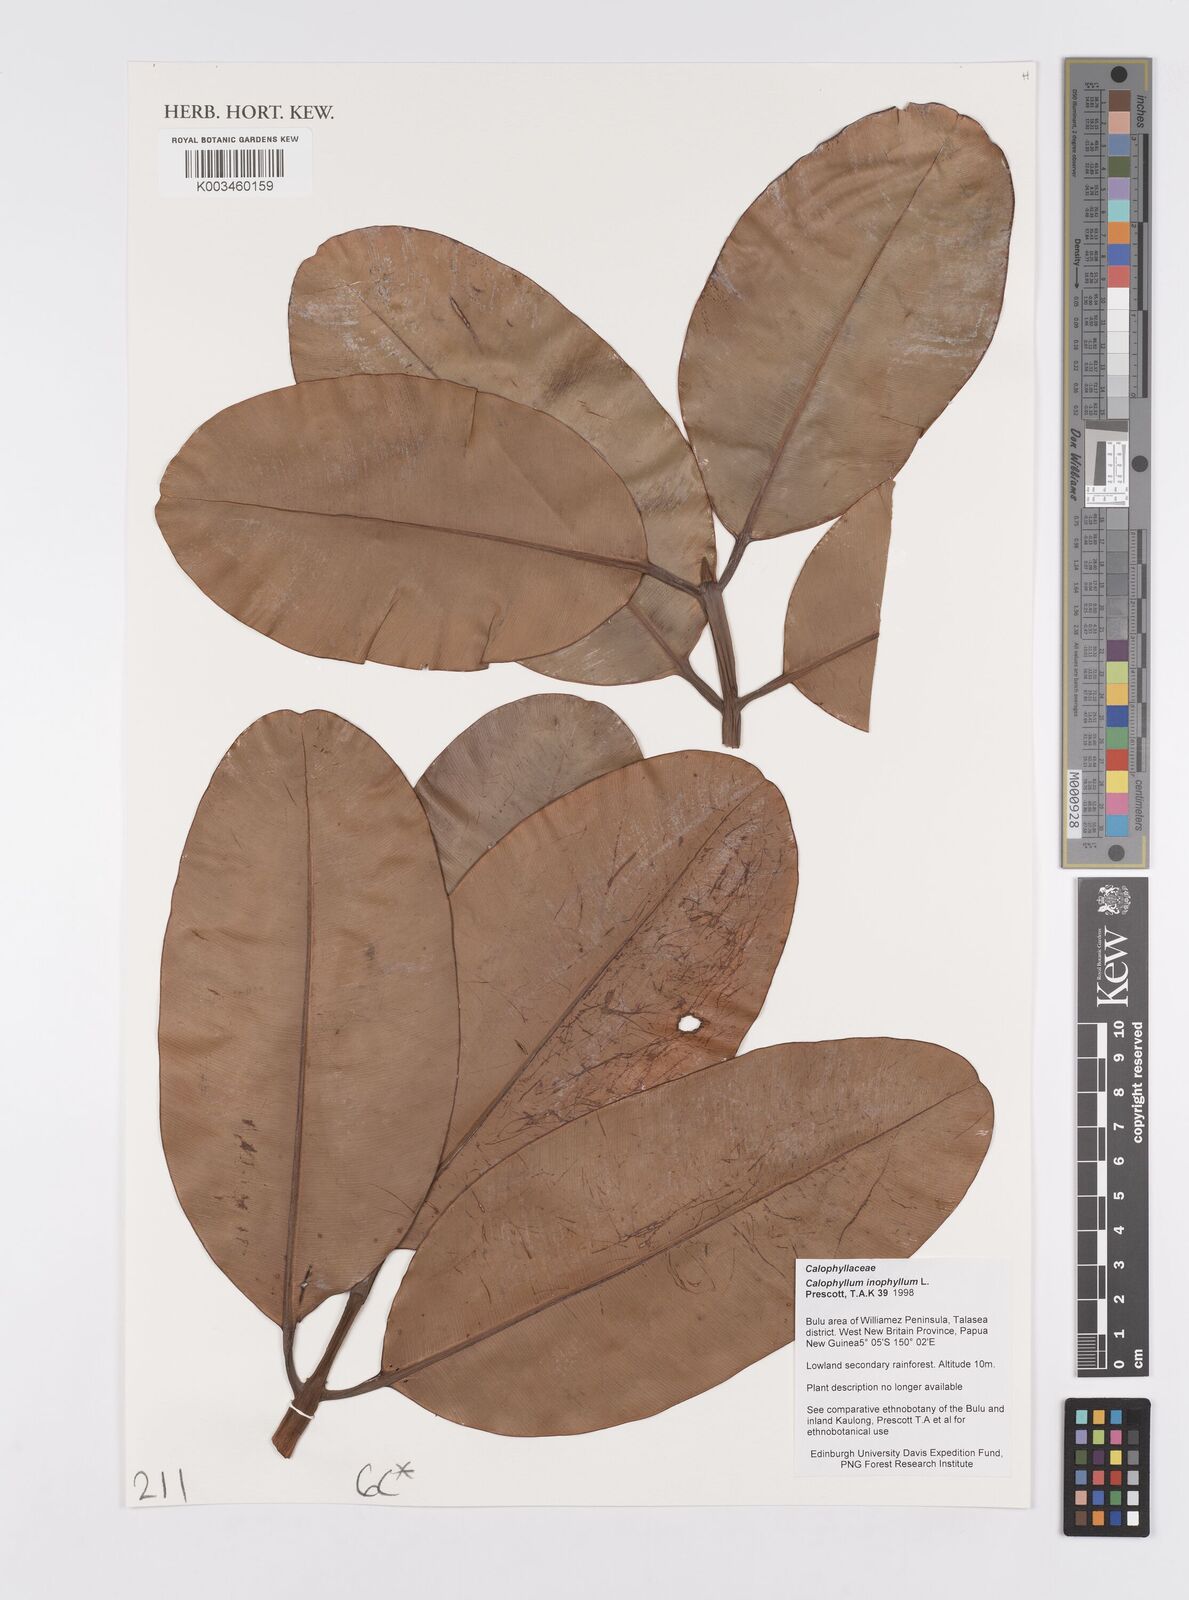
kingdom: Plantae
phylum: Tracheophyta
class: Magnoliopsida
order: Malpighiales
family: Calophyllaceae
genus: Calophyllum
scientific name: Calophyllum inophyllum
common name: Alexandrian laurel
